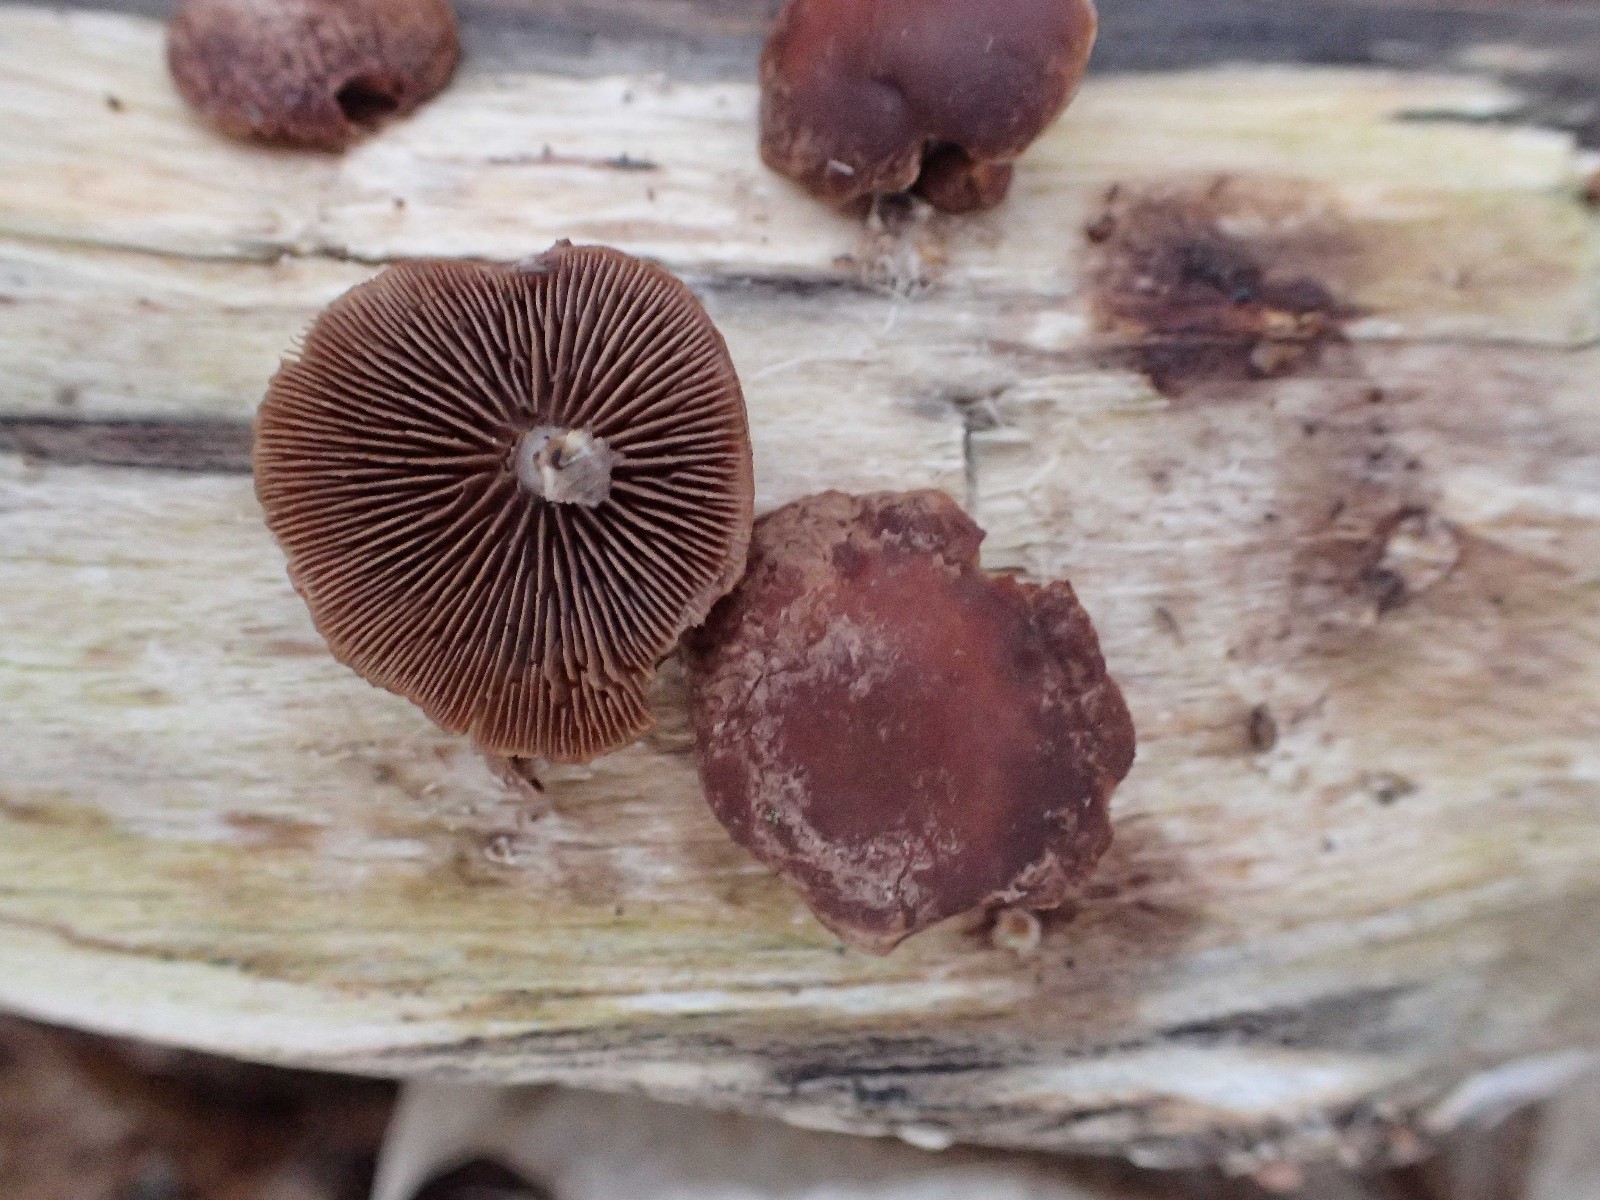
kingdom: Fungi
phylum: Basidiomycota
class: Agaricomycetes
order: Agaricales
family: Strophariaceae
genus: Deconica
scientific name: Deconica horizontalis
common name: ved-stråhat
